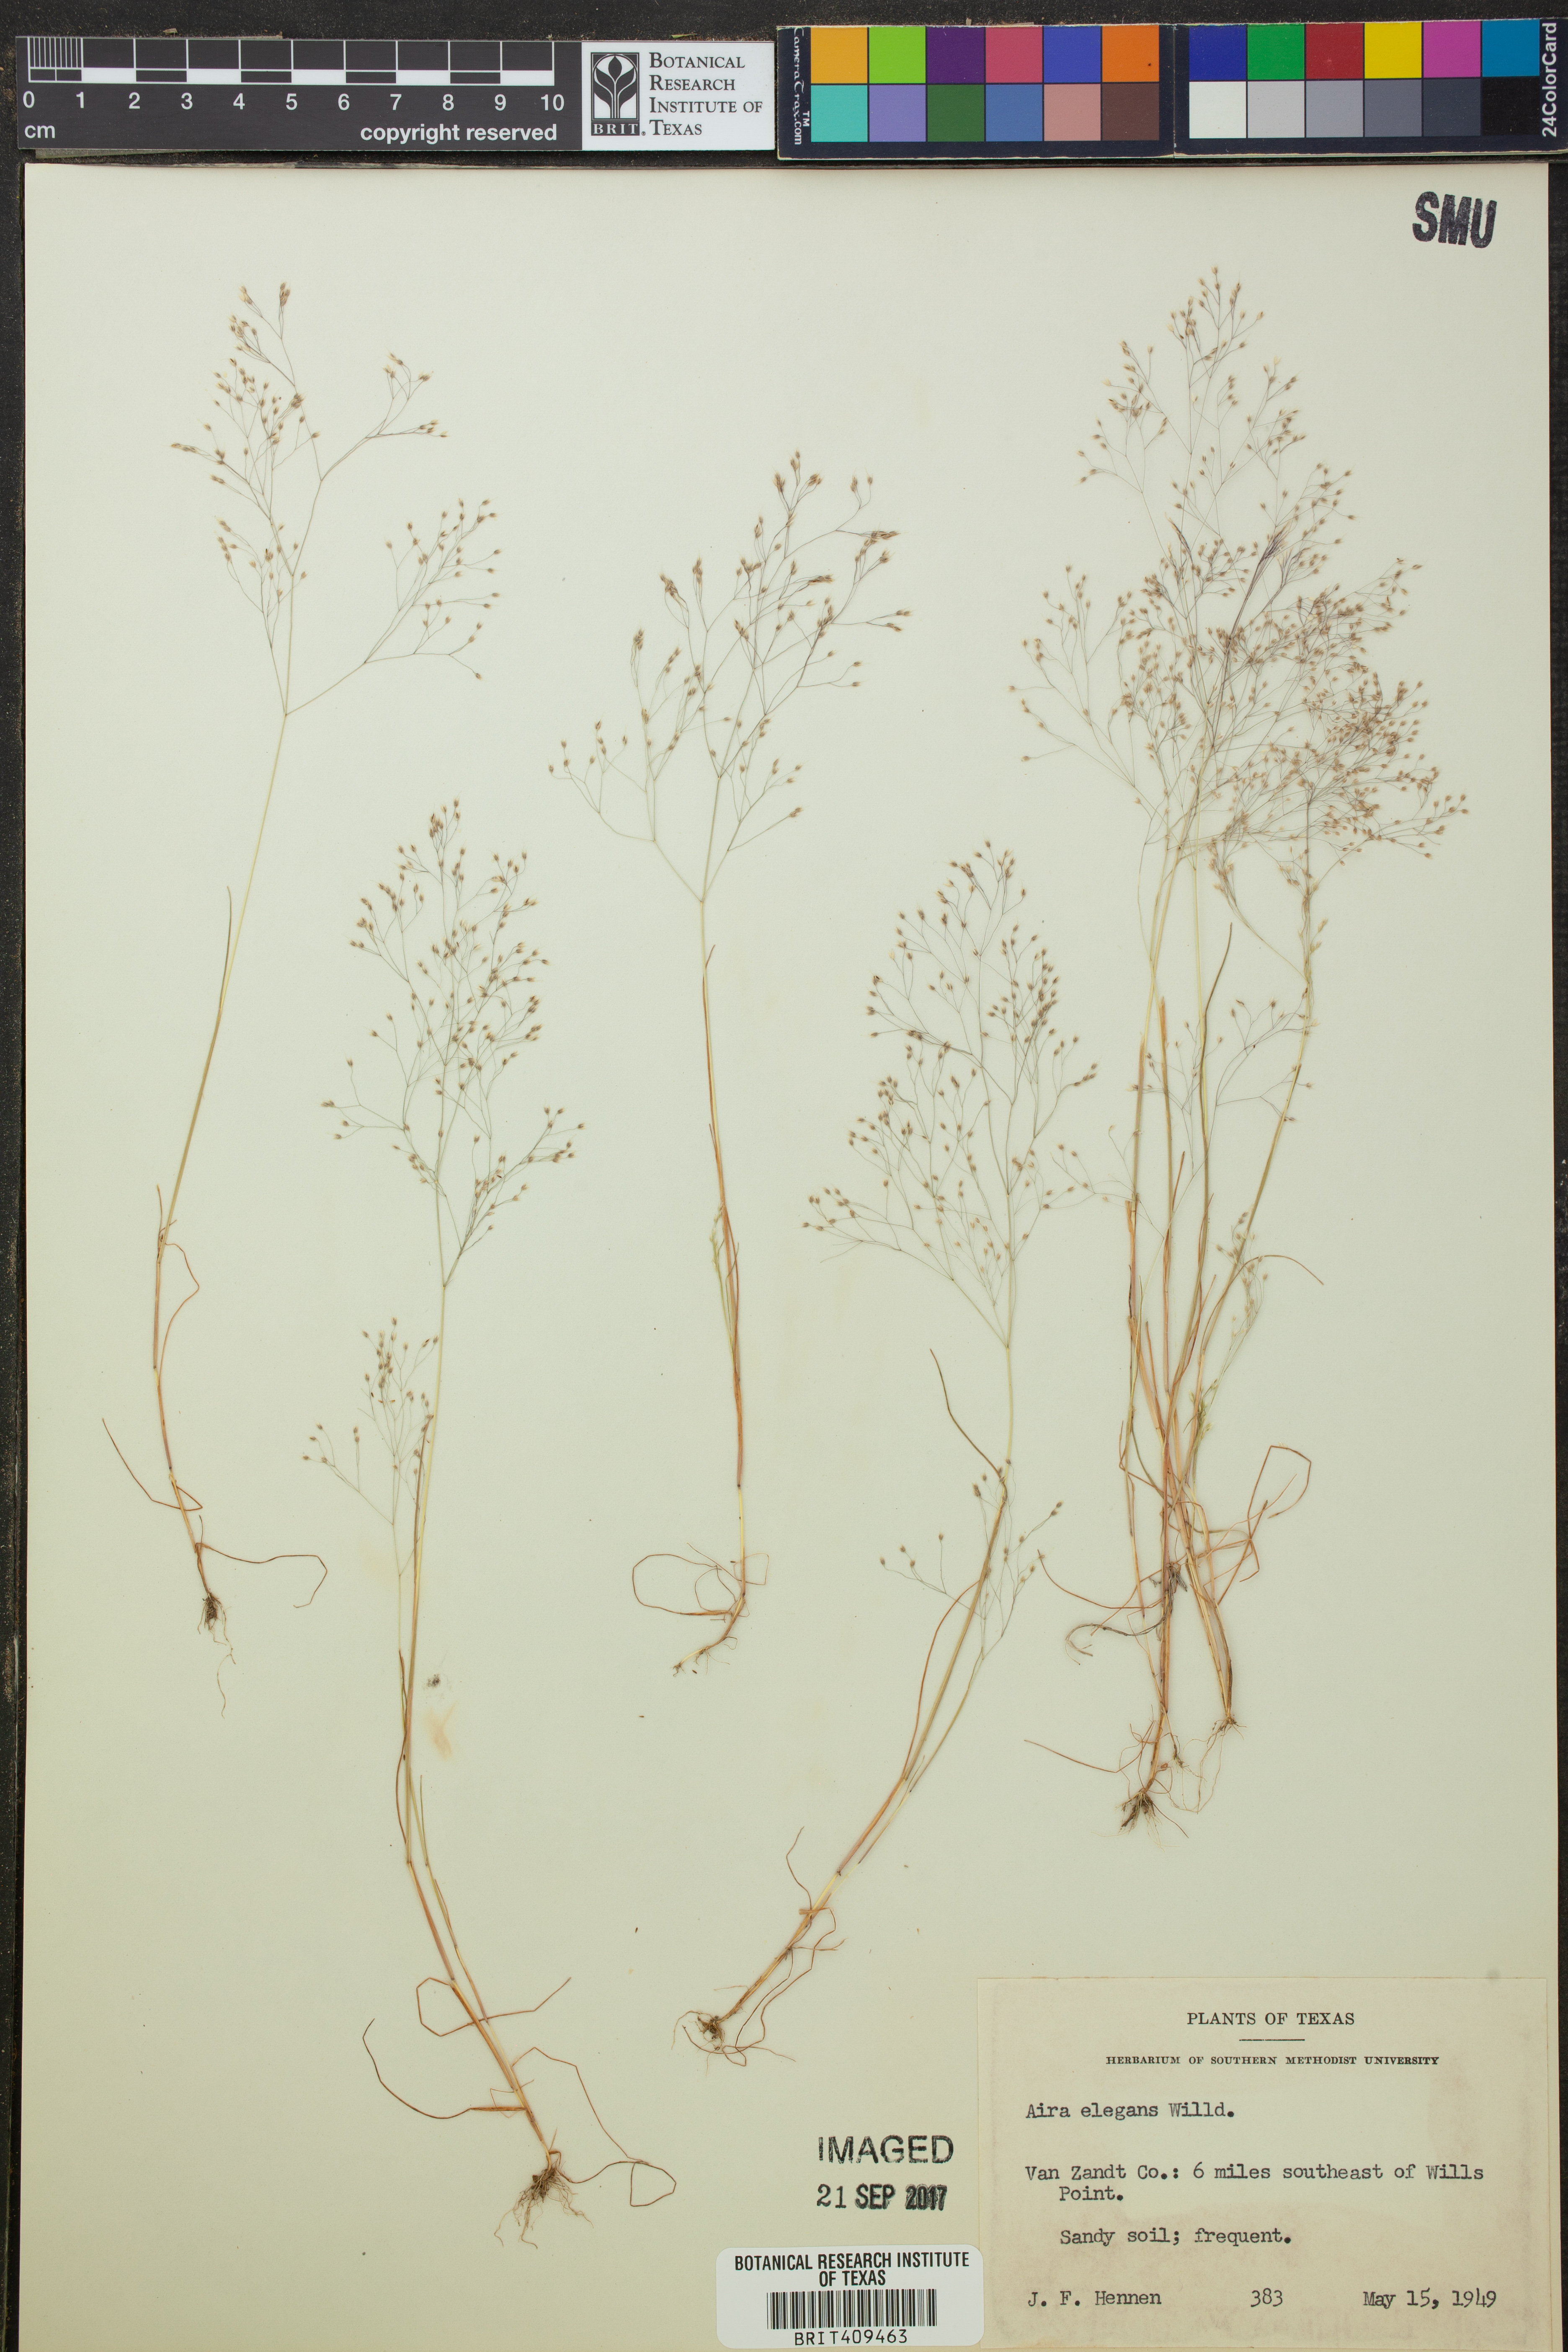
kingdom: Plantae
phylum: Tracheophyta
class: Liliopsida
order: Poales
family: Poaceae
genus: Aira
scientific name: Aira elegans
